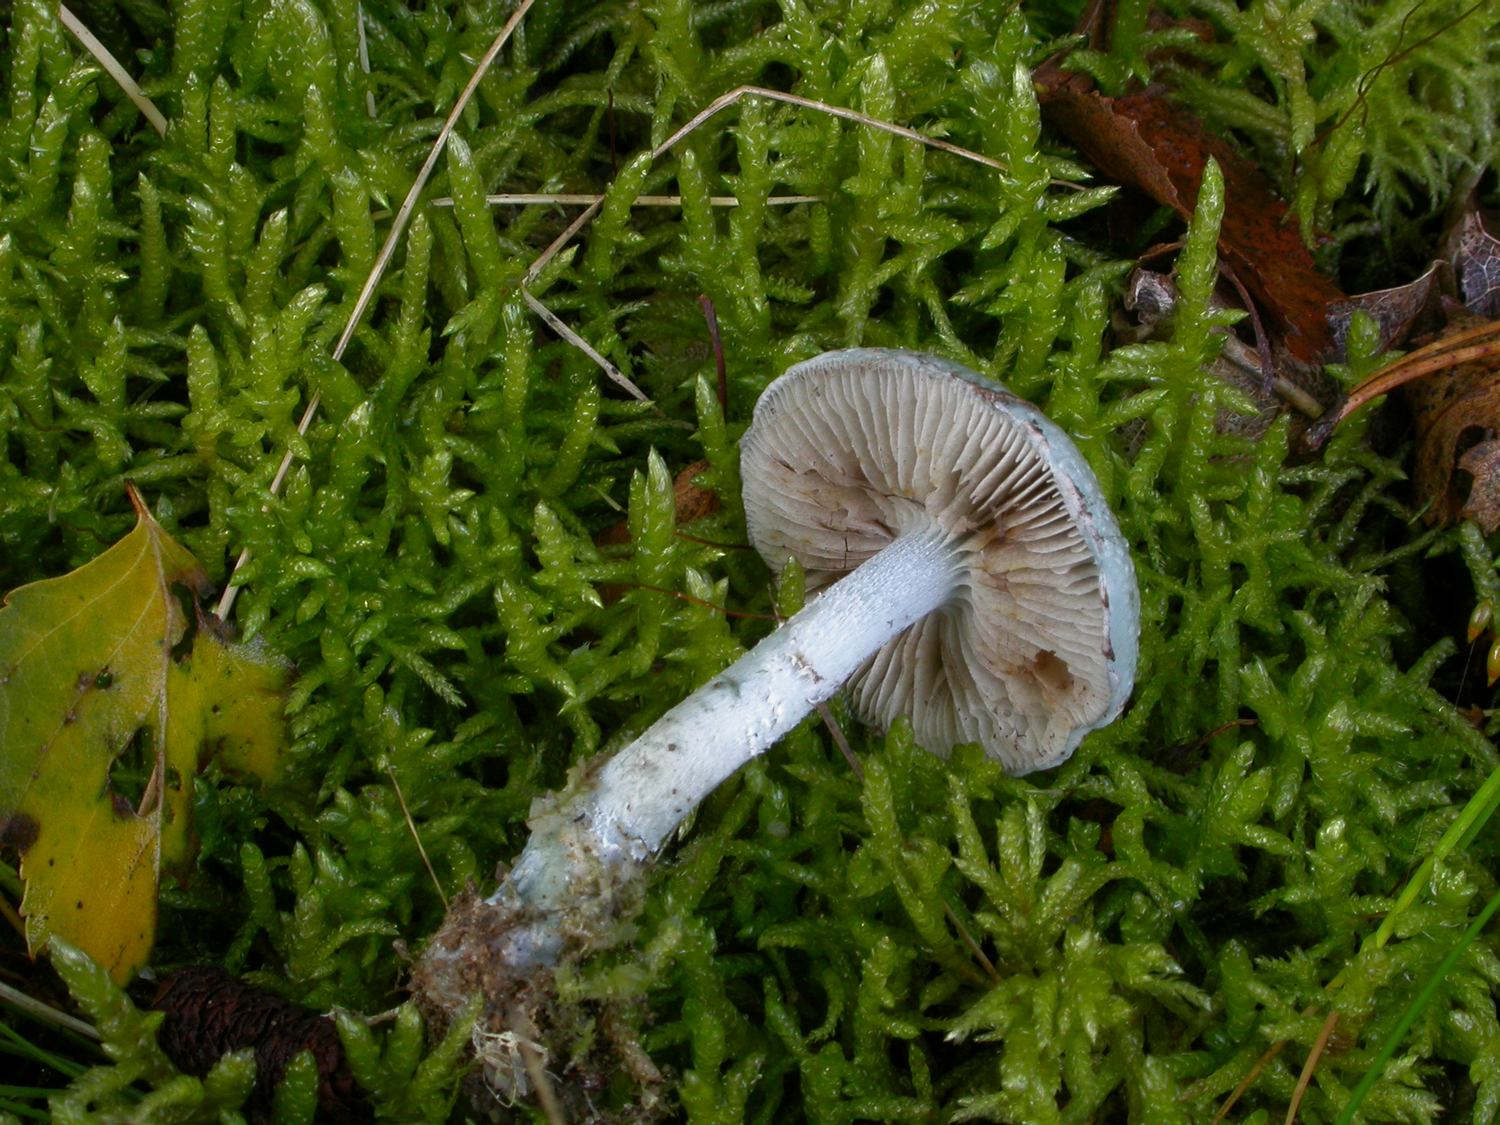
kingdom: Fungi
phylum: Basidiomycota
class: Agaricomycetes
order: Agaricales
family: Strophariaceae
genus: Stropharia
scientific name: Stropharia cyanea
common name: blågrøn bredblad
